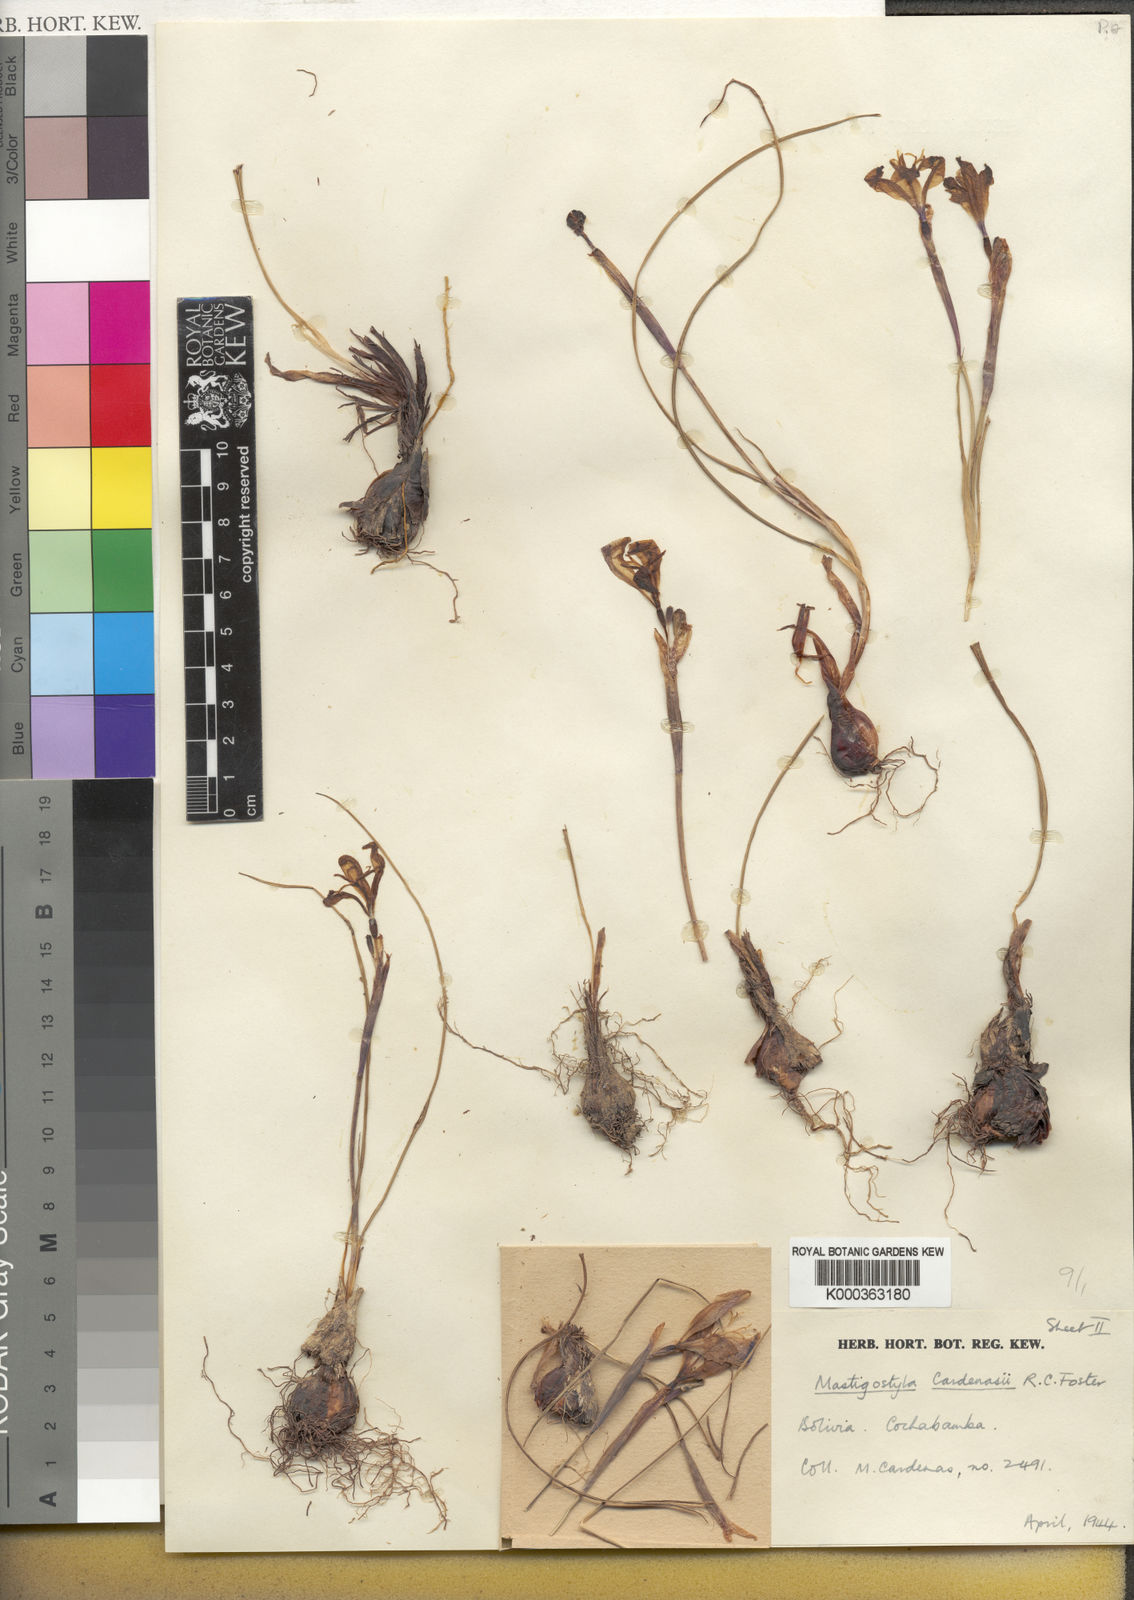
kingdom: Plantae
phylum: Tracheophyta
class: Liliopsida
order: Asparagales
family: Iridaceae
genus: Mastigostyla
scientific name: Mastigostyla cardenasii
